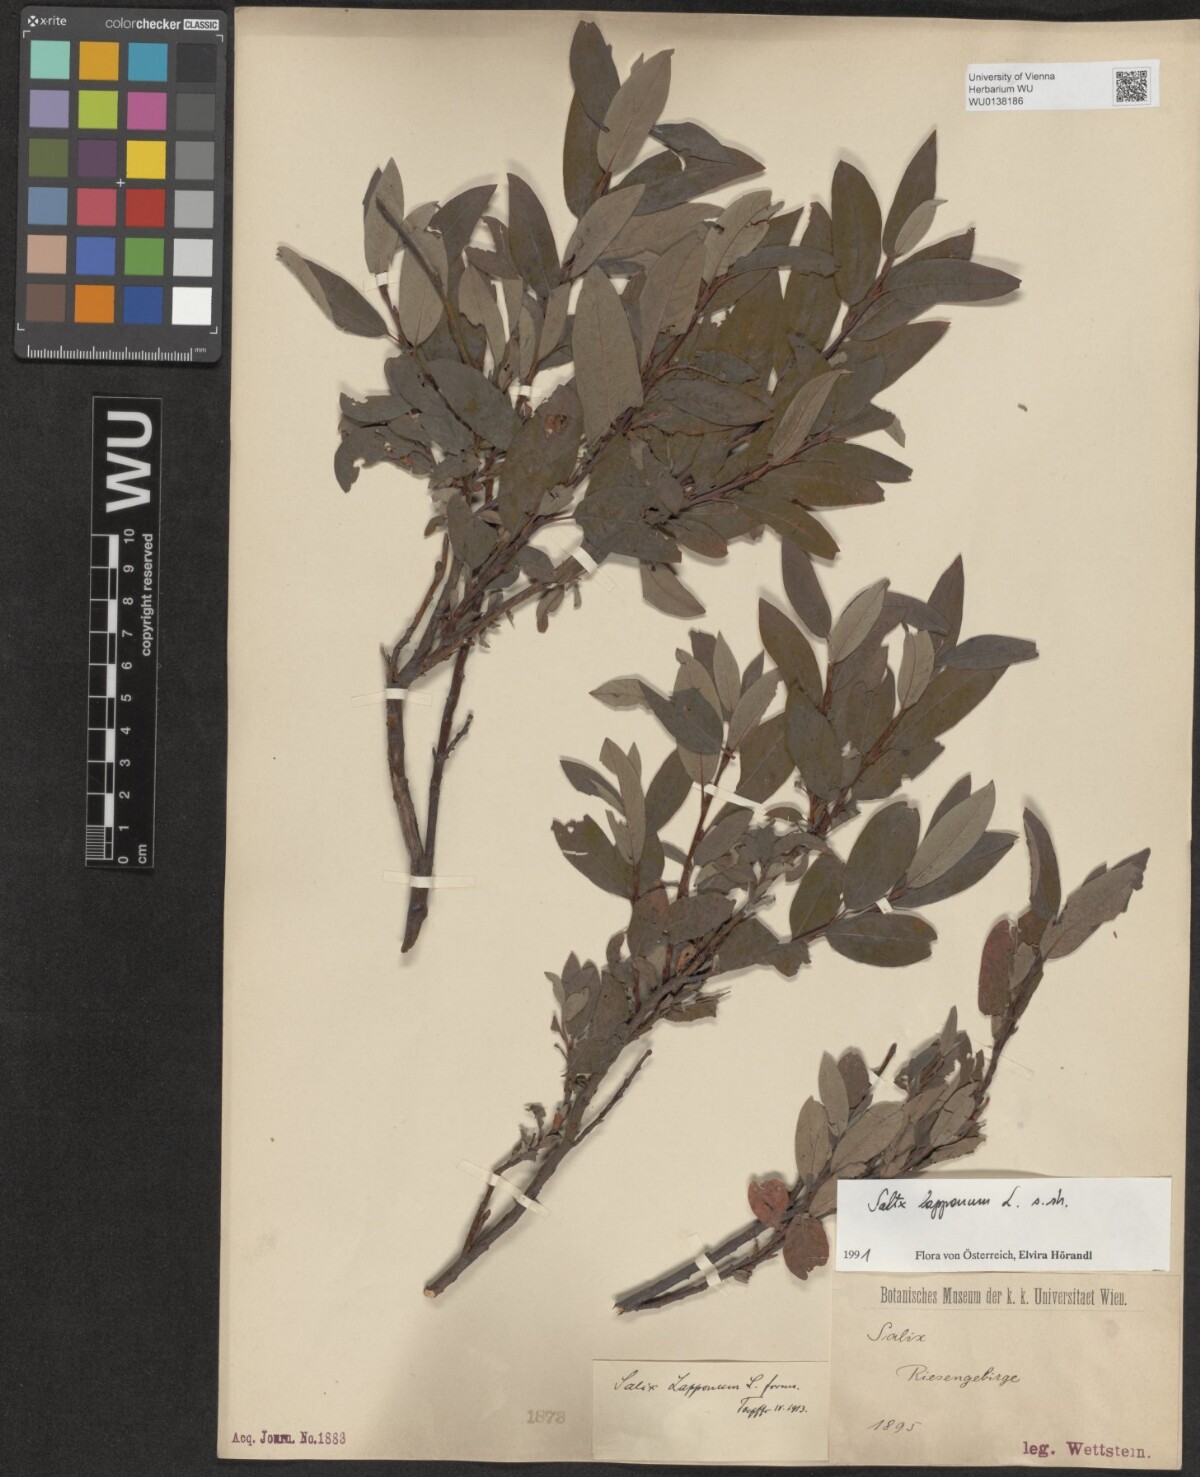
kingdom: Plantae
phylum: Tracheophyta
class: Magnoliopsida
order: Malpighiales
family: Salicaceae
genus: Salix
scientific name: Salix lapponum
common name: Downy willow
